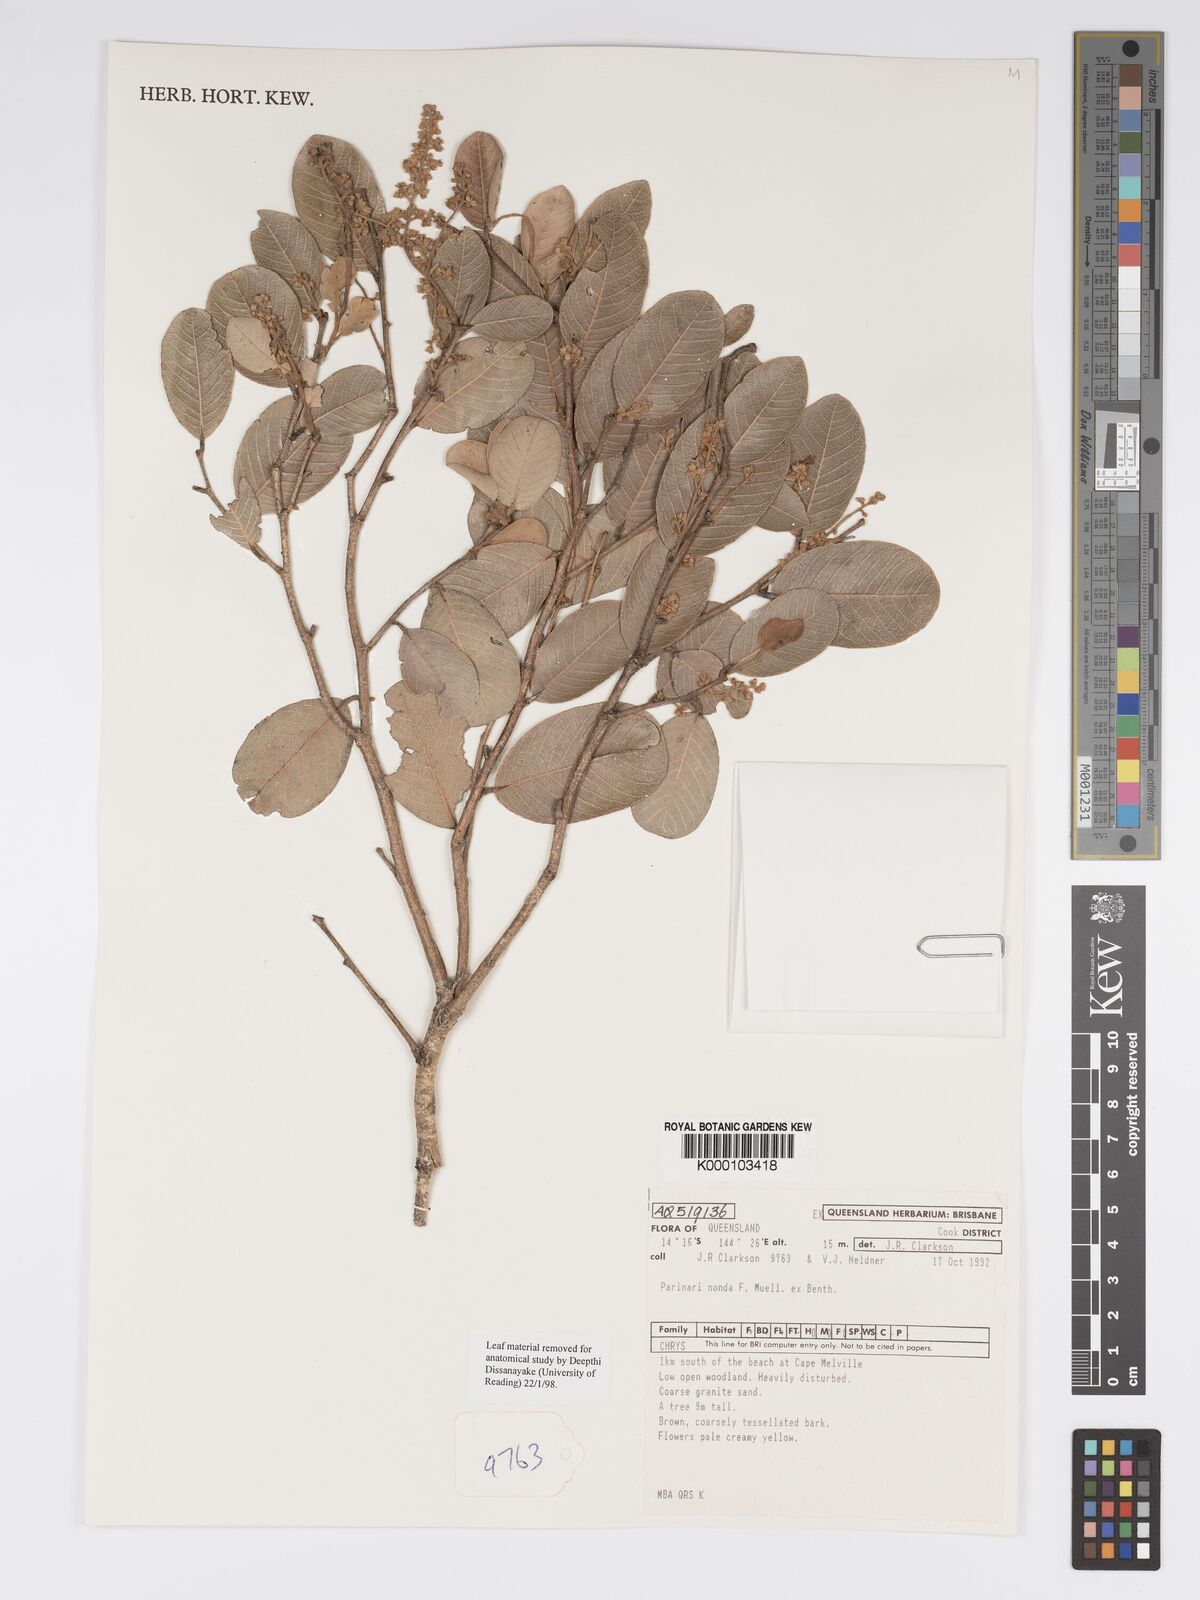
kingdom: Plantae
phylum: Tracheophyta
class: Magnoliopsida
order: Malpighiales
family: Chrysobalanaceae
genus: Parinari
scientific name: Parinari nonda
